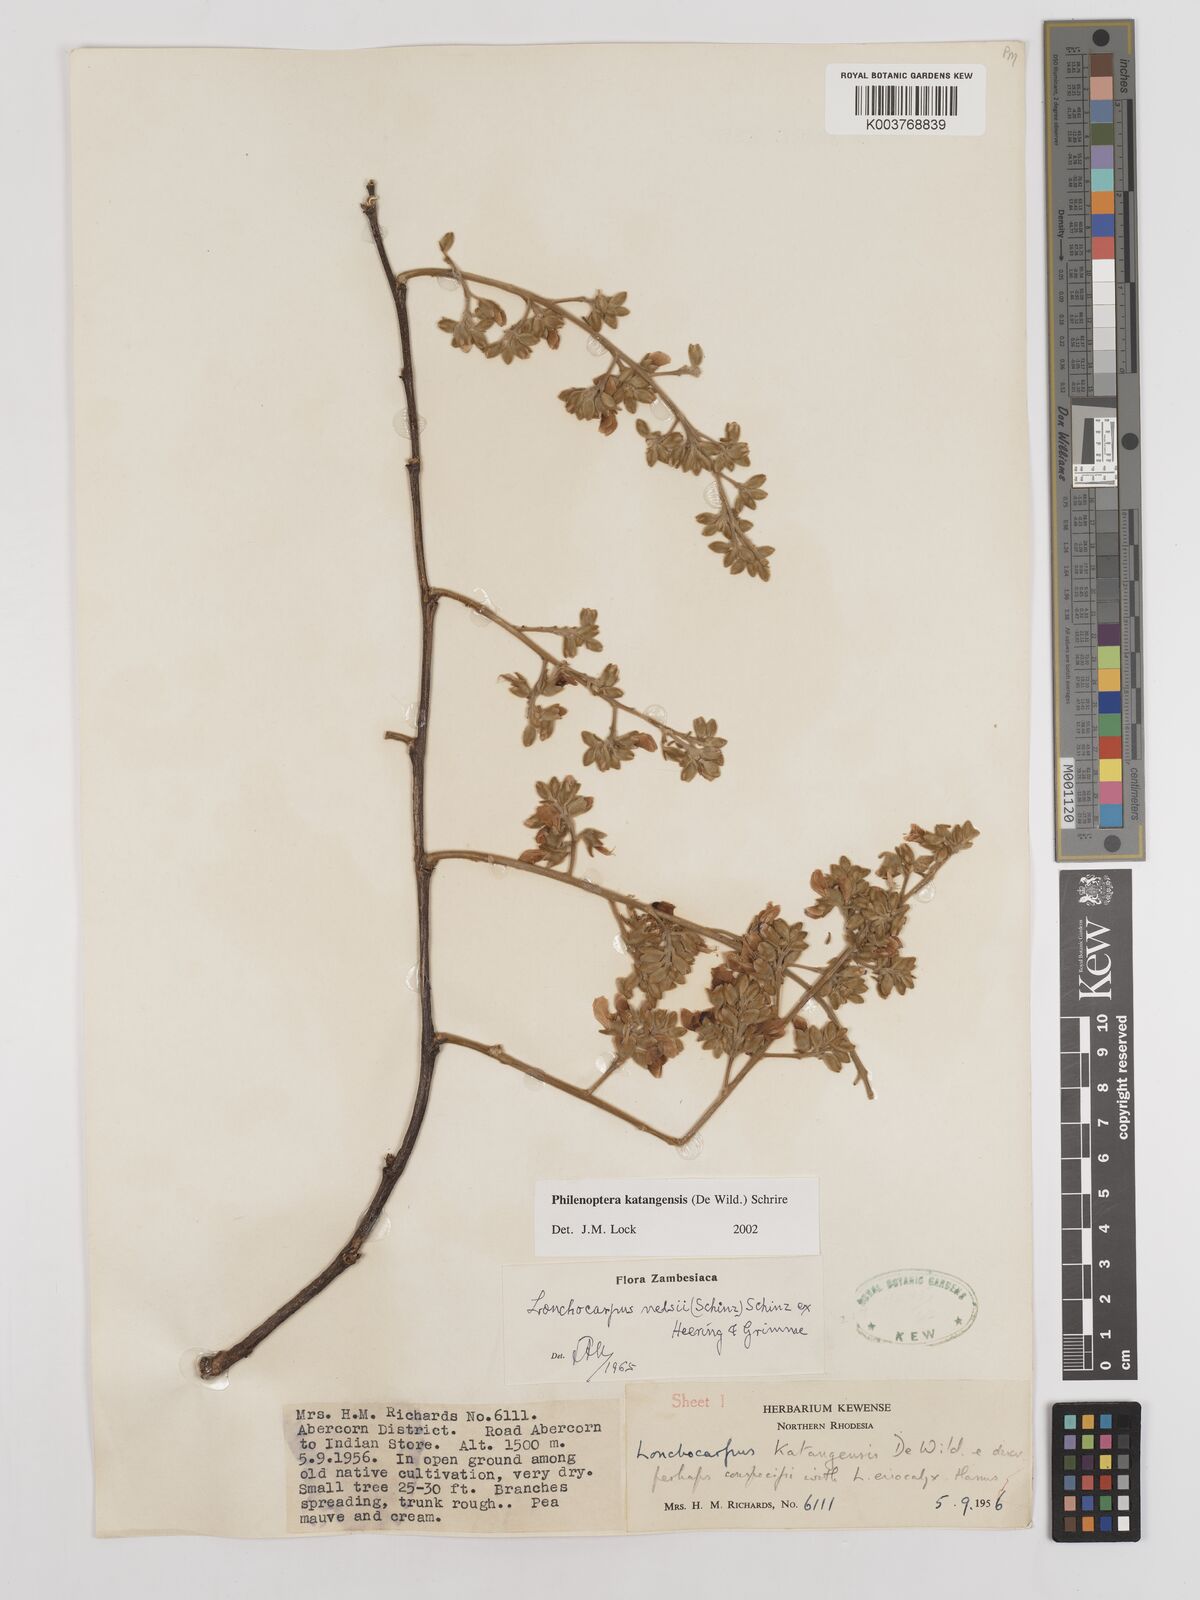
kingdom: Plantae
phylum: Tracheophyta
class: Magnoliopsida
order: Fabales
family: Fabaceae
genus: Philenoptera
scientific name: Philenoptera katangensis
